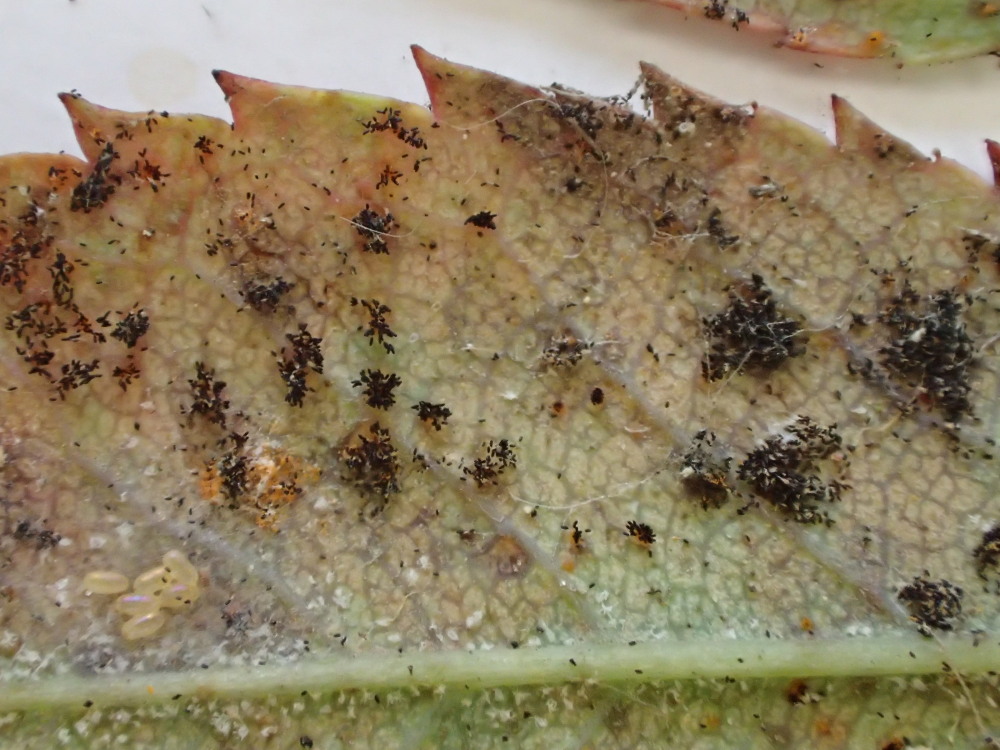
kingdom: Fungi
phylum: Basidiomycota
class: Pucciniomycetes
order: Pucciniales
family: Phragmidiaceae
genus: Phragmidium
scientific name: Phragmidium tuberculatum
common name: Rose rust
